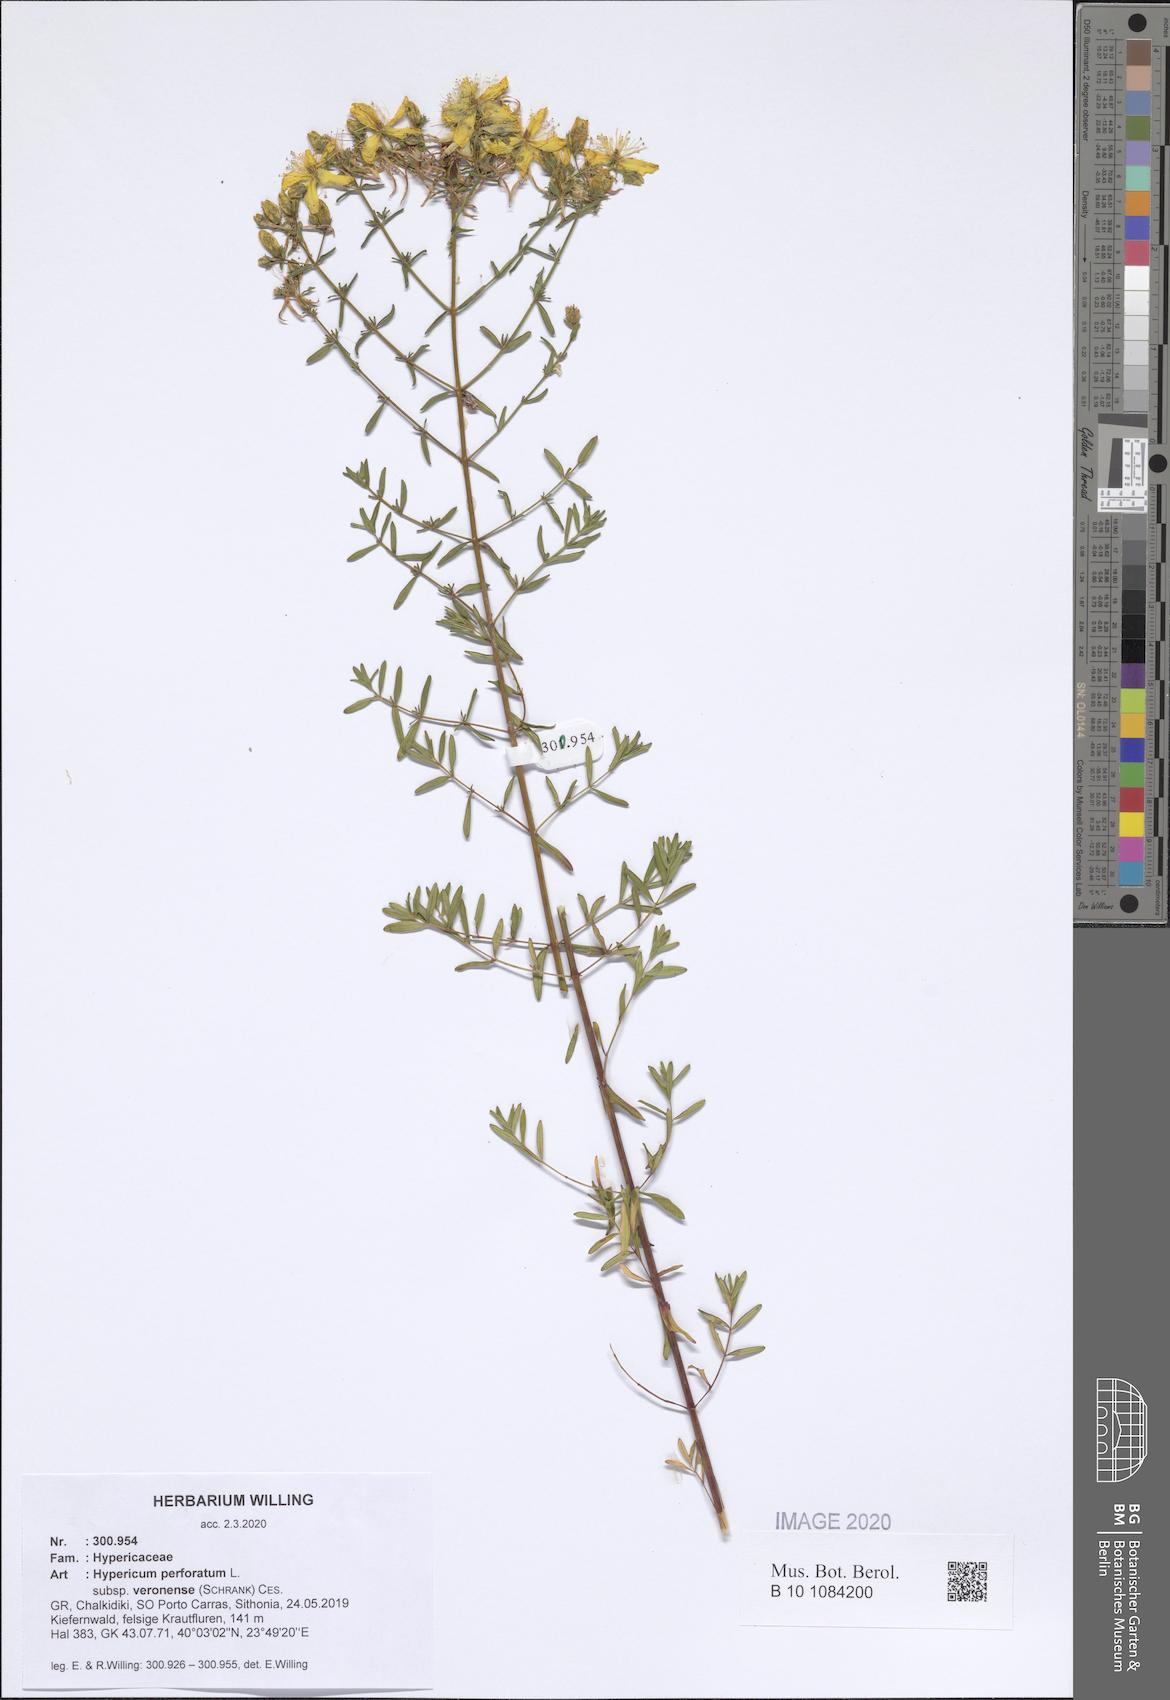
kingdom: Plantae
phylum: Tracheophyta
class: Magnoliopsida
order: Malpighiales
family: Hypericaceae
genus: Hypericum
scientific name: Hypericum veronense
